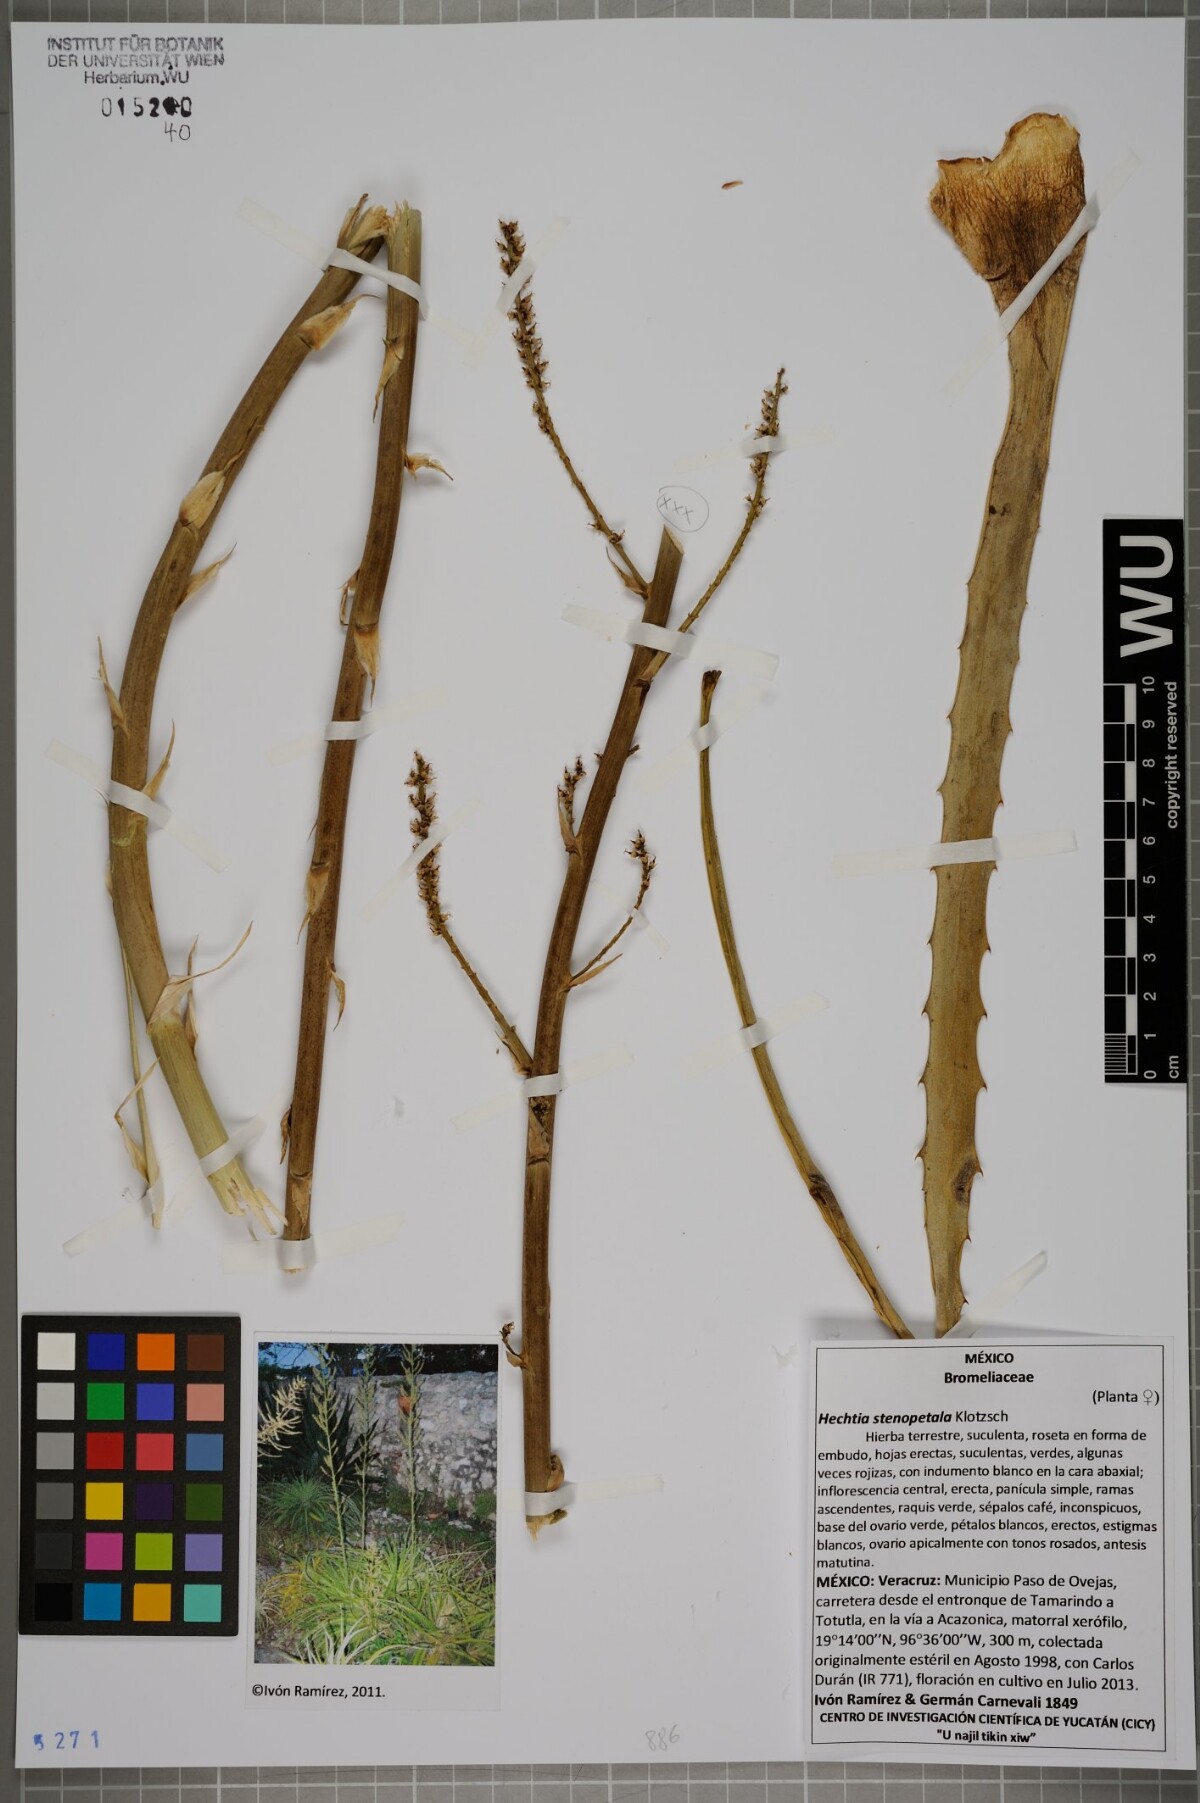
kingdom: Plantae
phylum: Tracheophyta
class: Liliopsida
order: Poales
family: Bromeliaceae
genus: Hechtia
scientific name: Hechtia stenopetala
